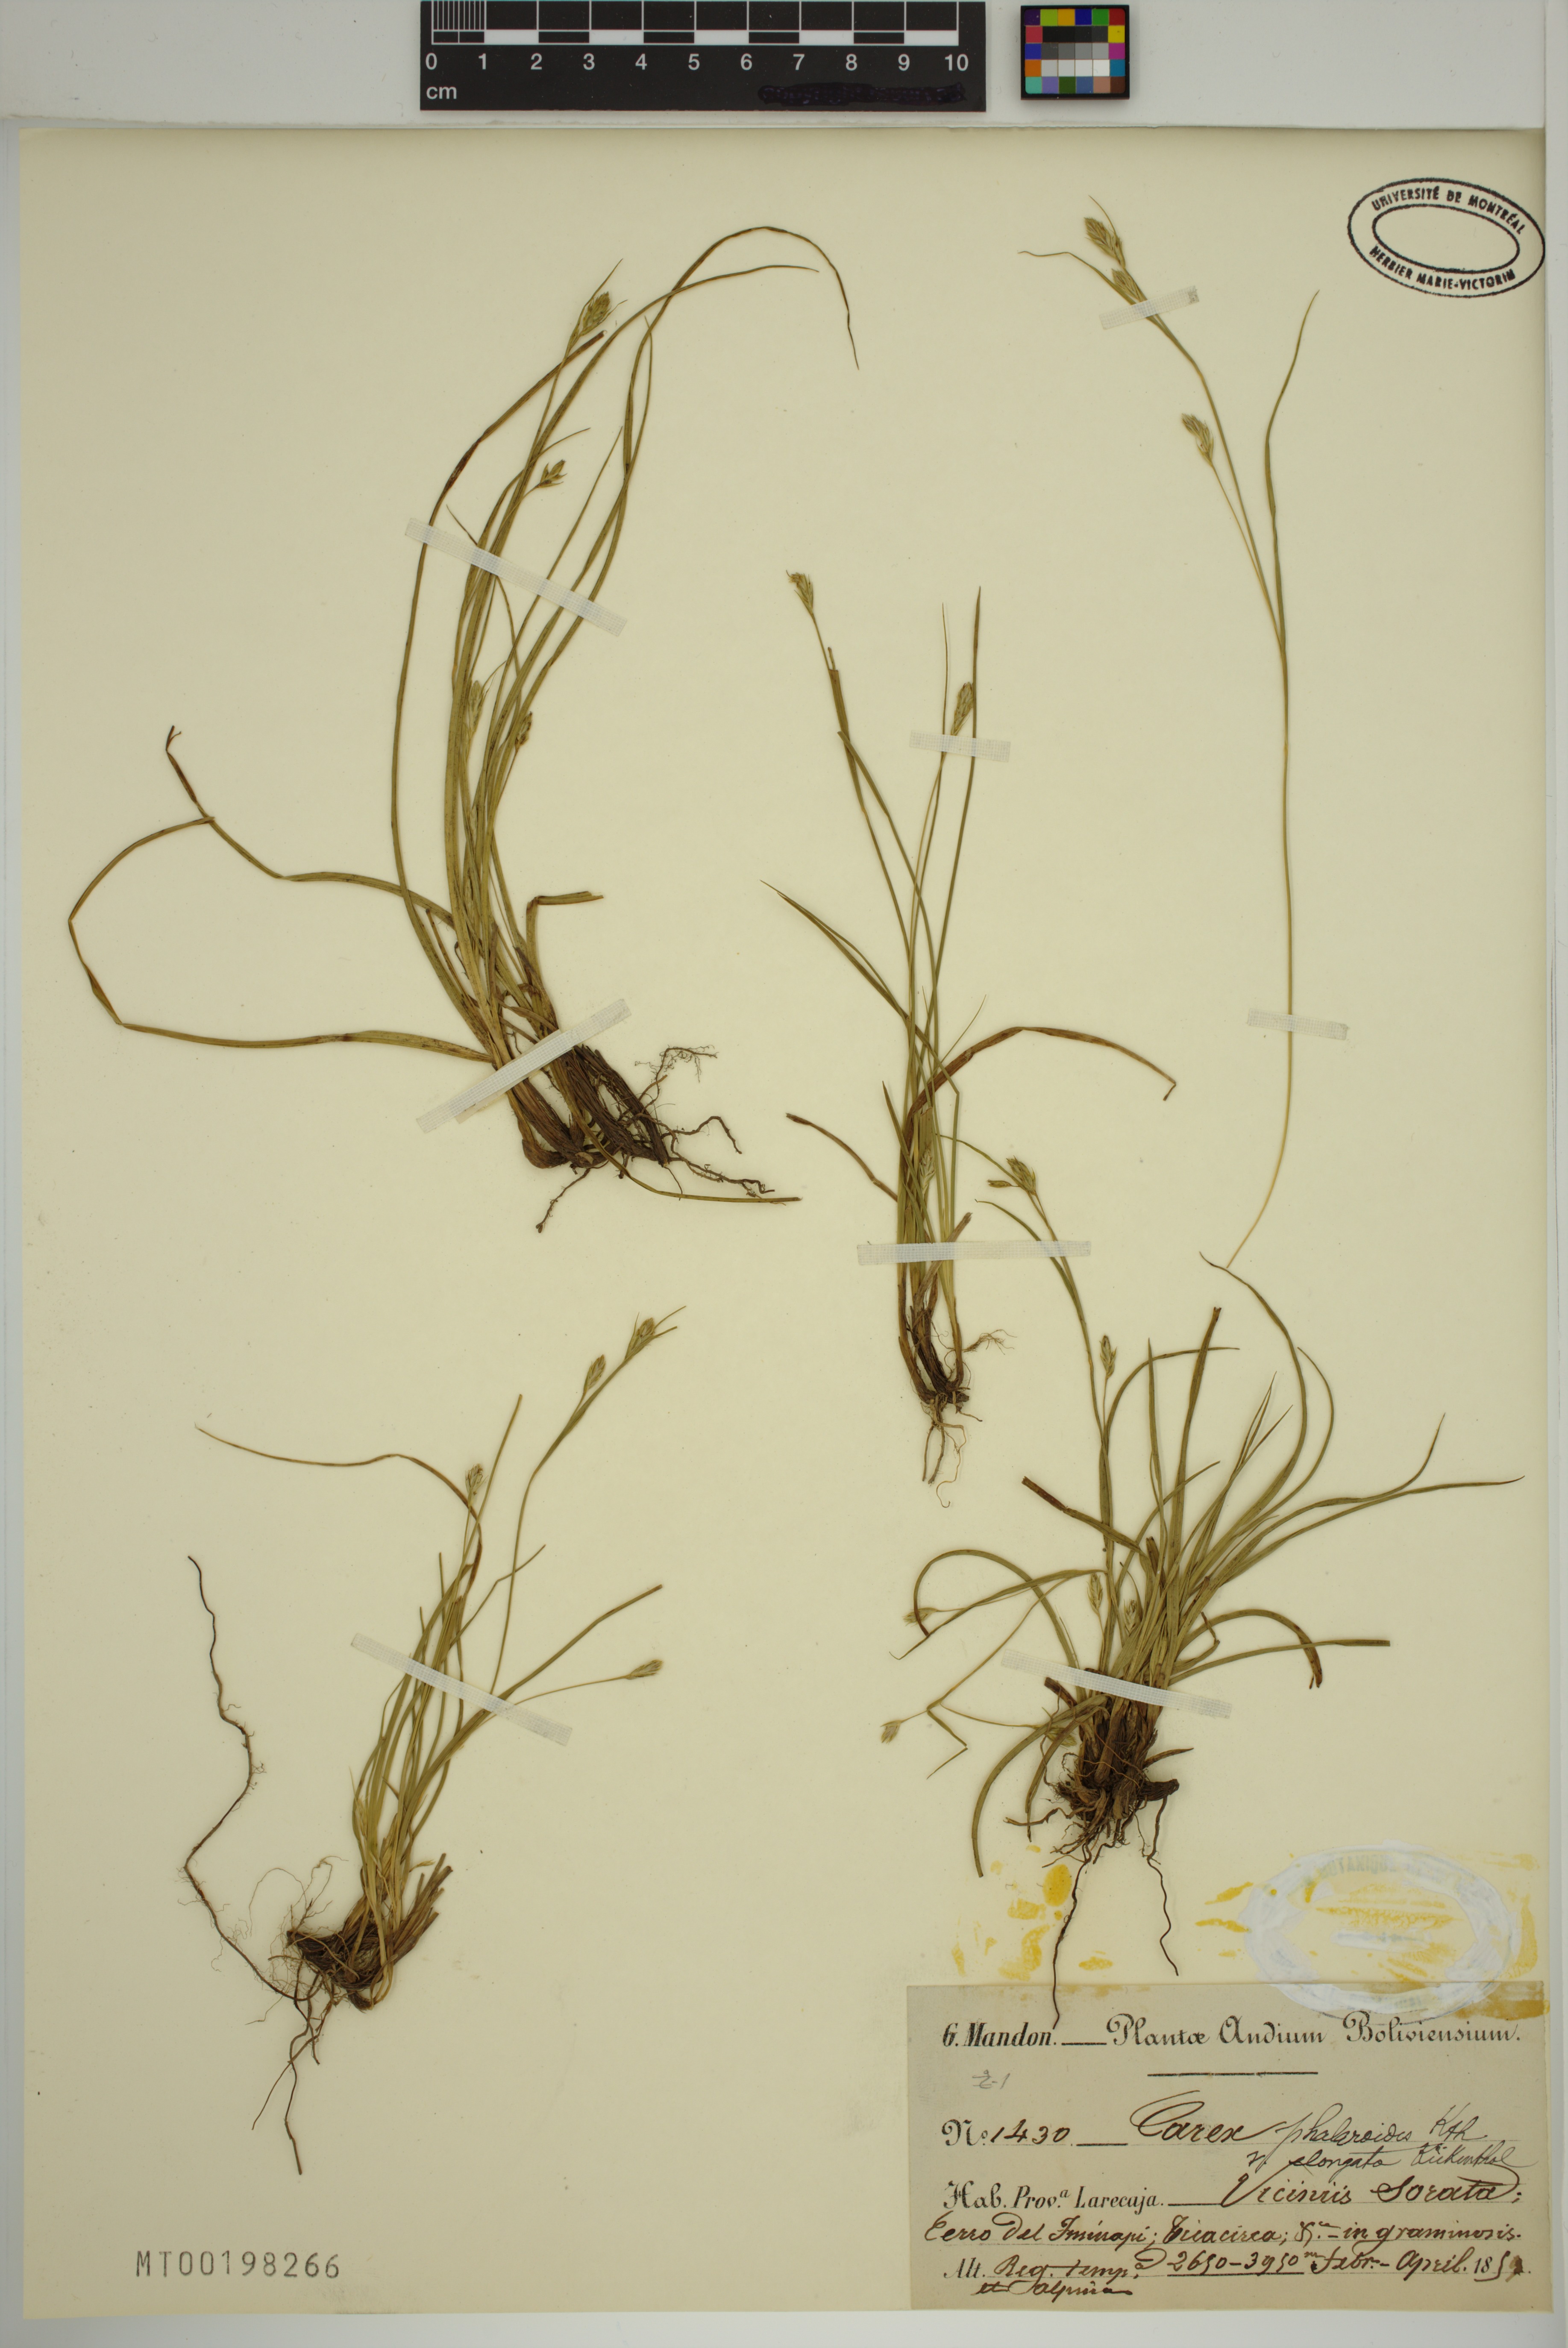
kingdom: Plantae
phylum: Tracheophyta
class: Liliopsida
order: Poales
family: Cyperaceae
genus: Carex
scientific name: Carex moesta
